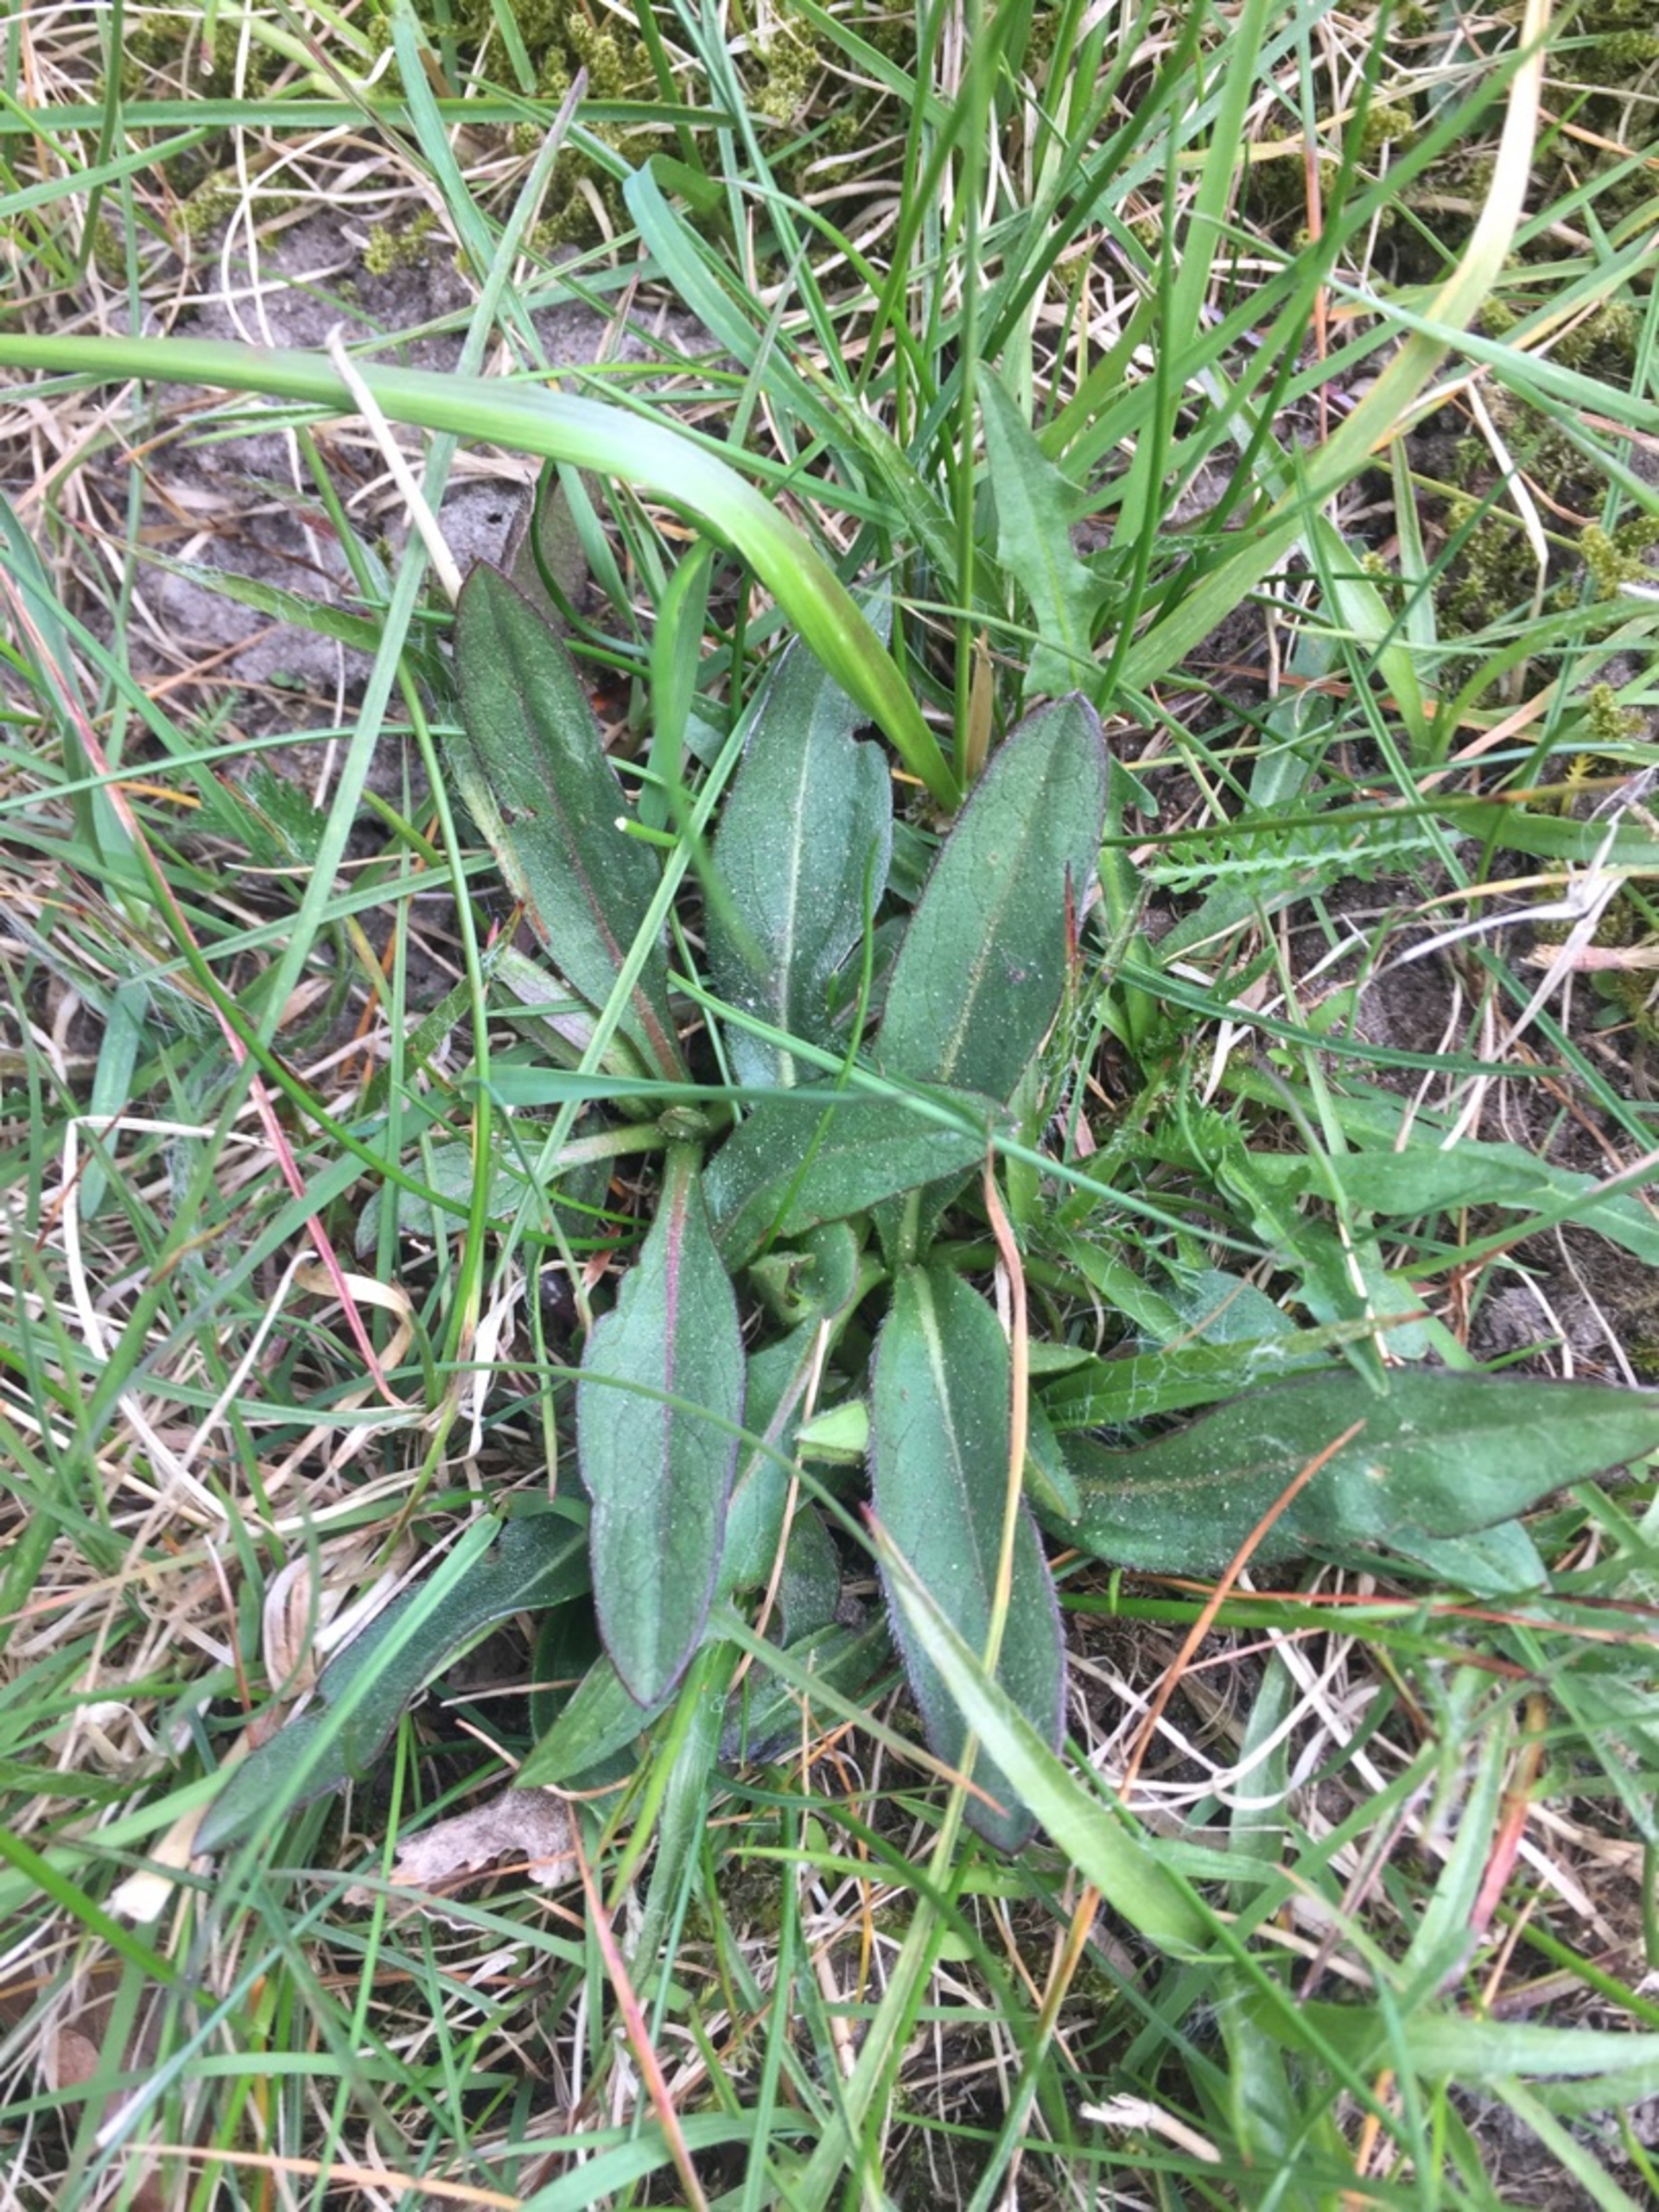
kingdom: Plantae
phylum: Tracheophyta
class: Magnoliopsida
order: Dipsacales
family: Caprifoliaceae
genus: Succisa
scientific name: Succisa pratensis
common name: Djævelsbid
